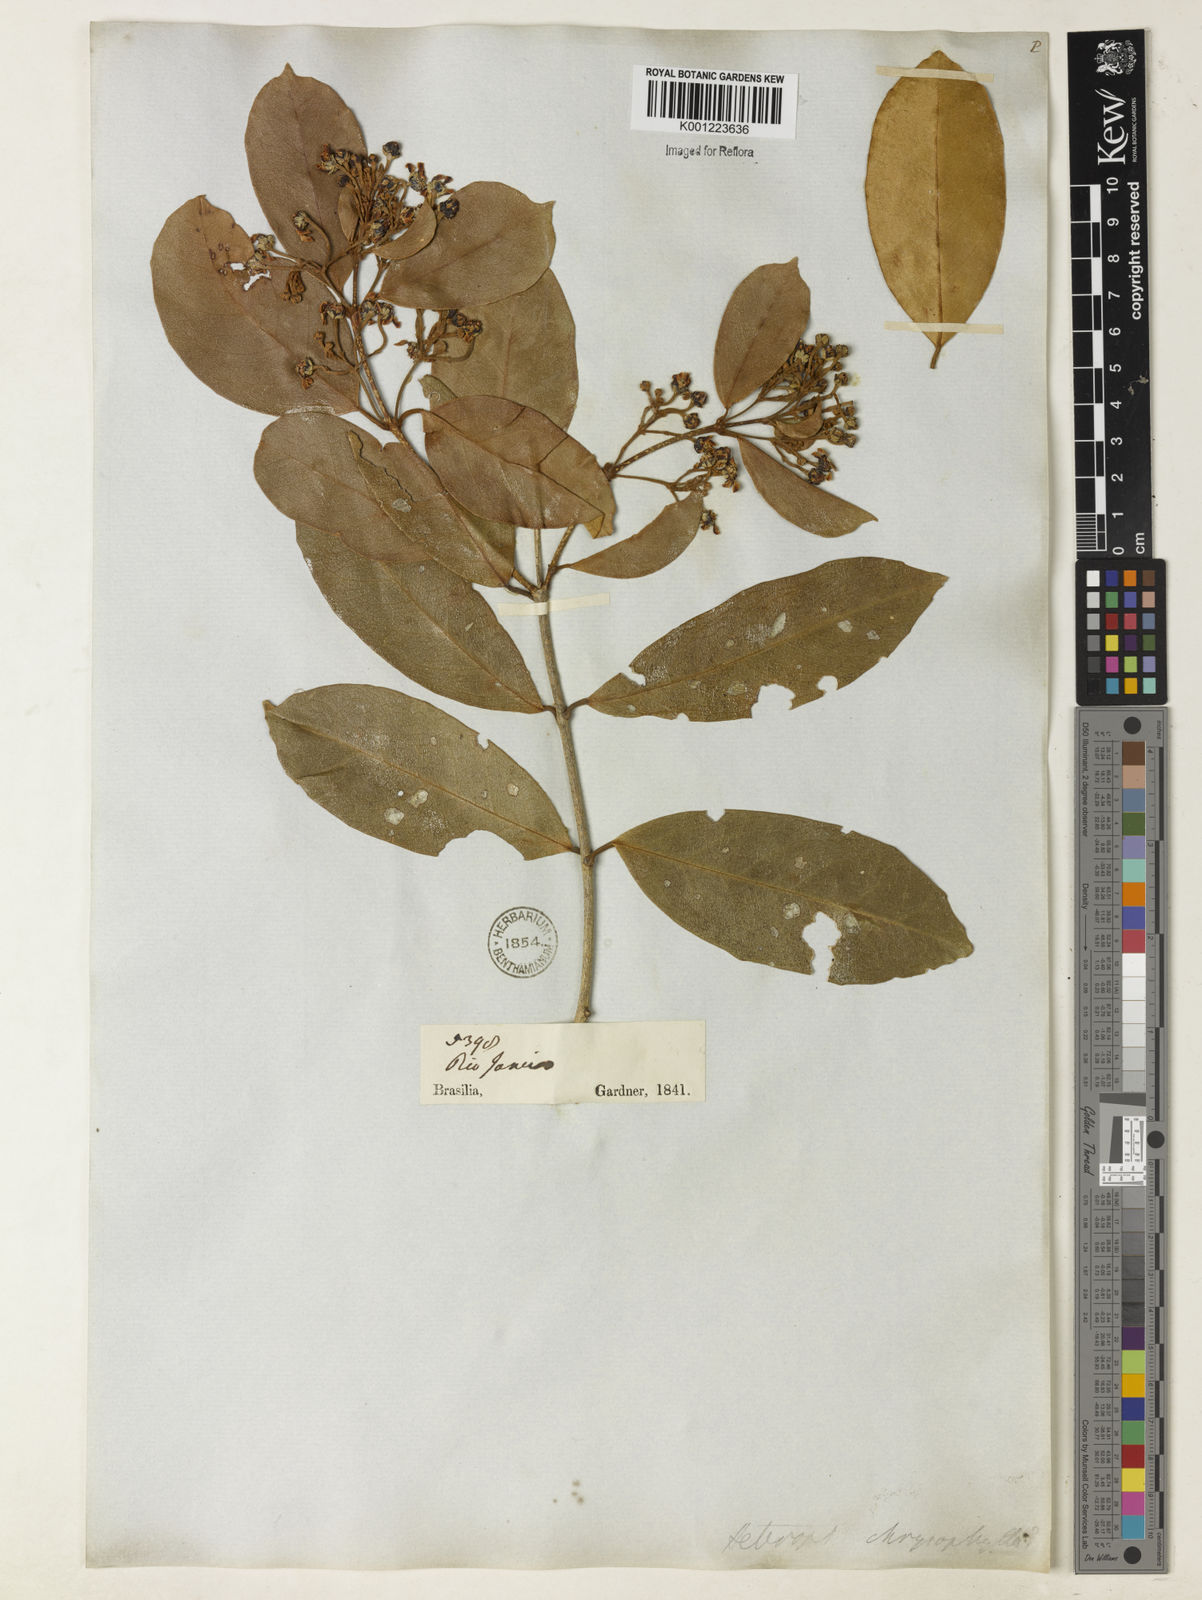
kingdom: Plantae
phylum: Tracheophyta
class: Magnoliopsida
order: Malpighiales
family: Malpighiaceae
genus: Heteropterys
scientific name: Heteropterys chrysophylla
